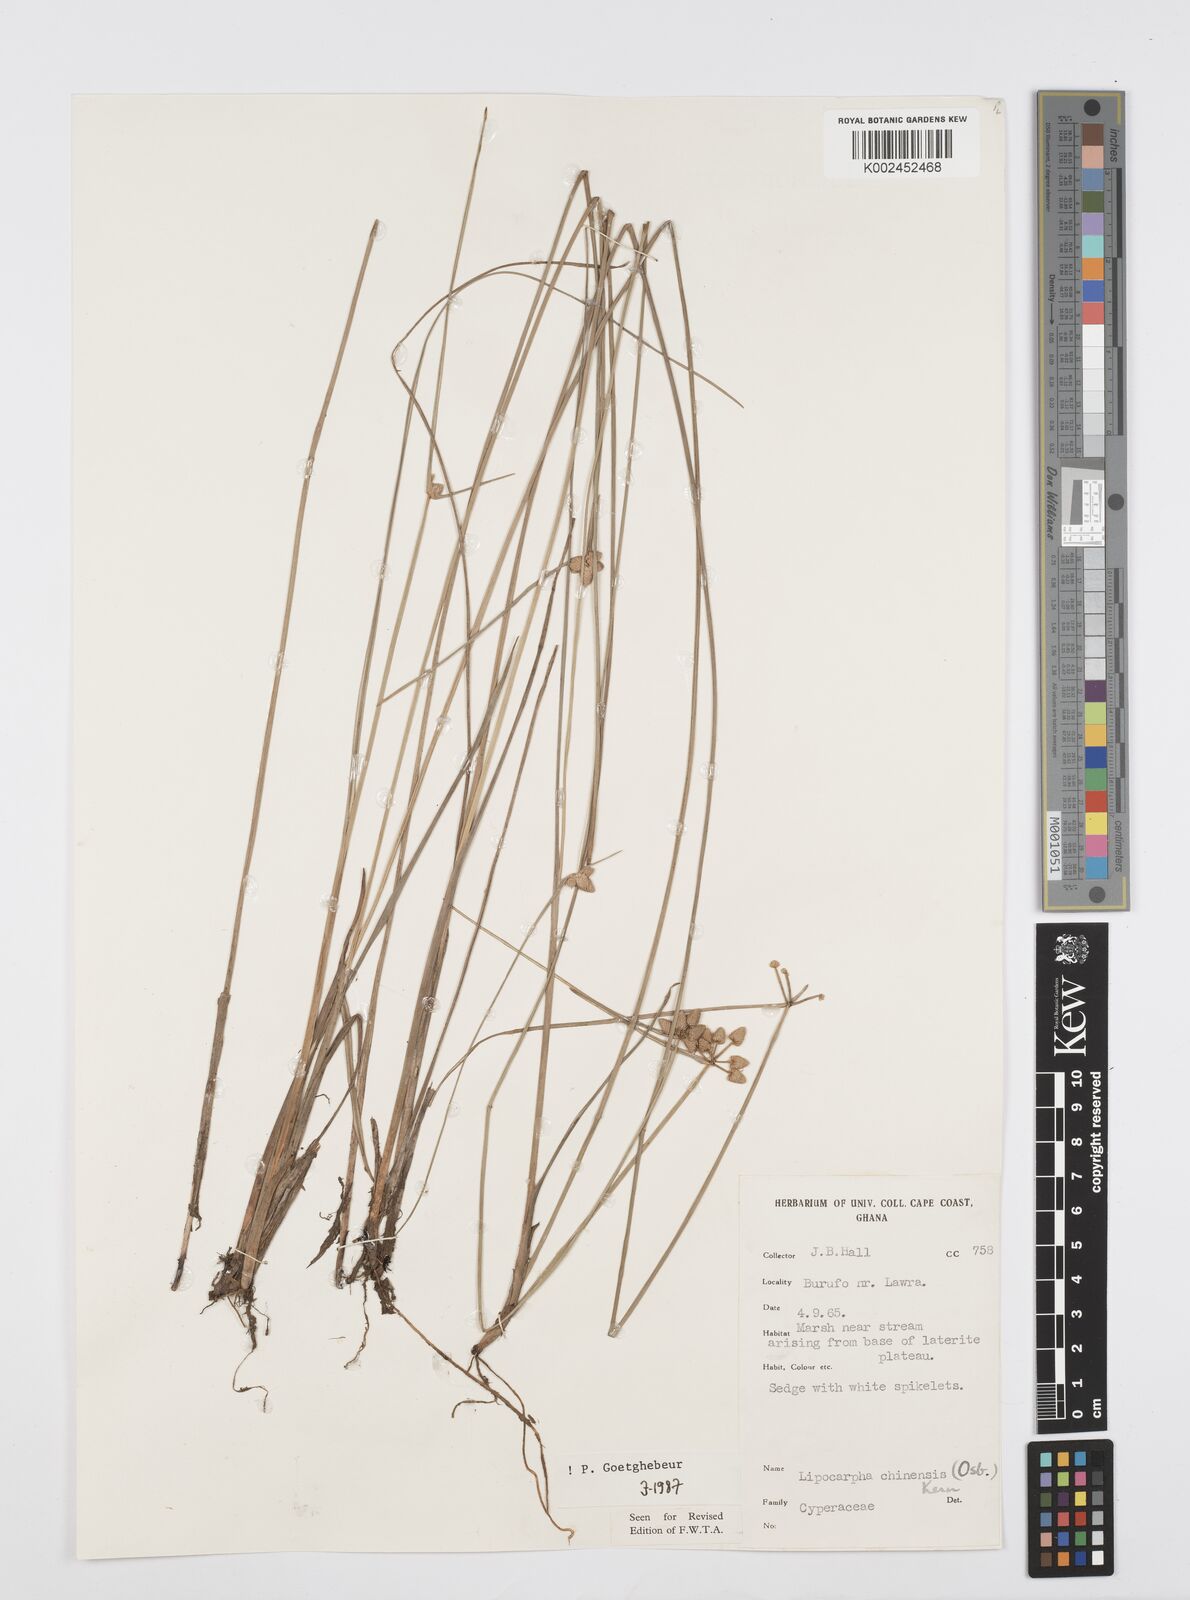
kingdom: Plantae
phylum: Tracheophyta
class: Liliopsida
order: Poales
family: Cyperaceae
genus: Cyperus
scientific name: Cyperus albescens
